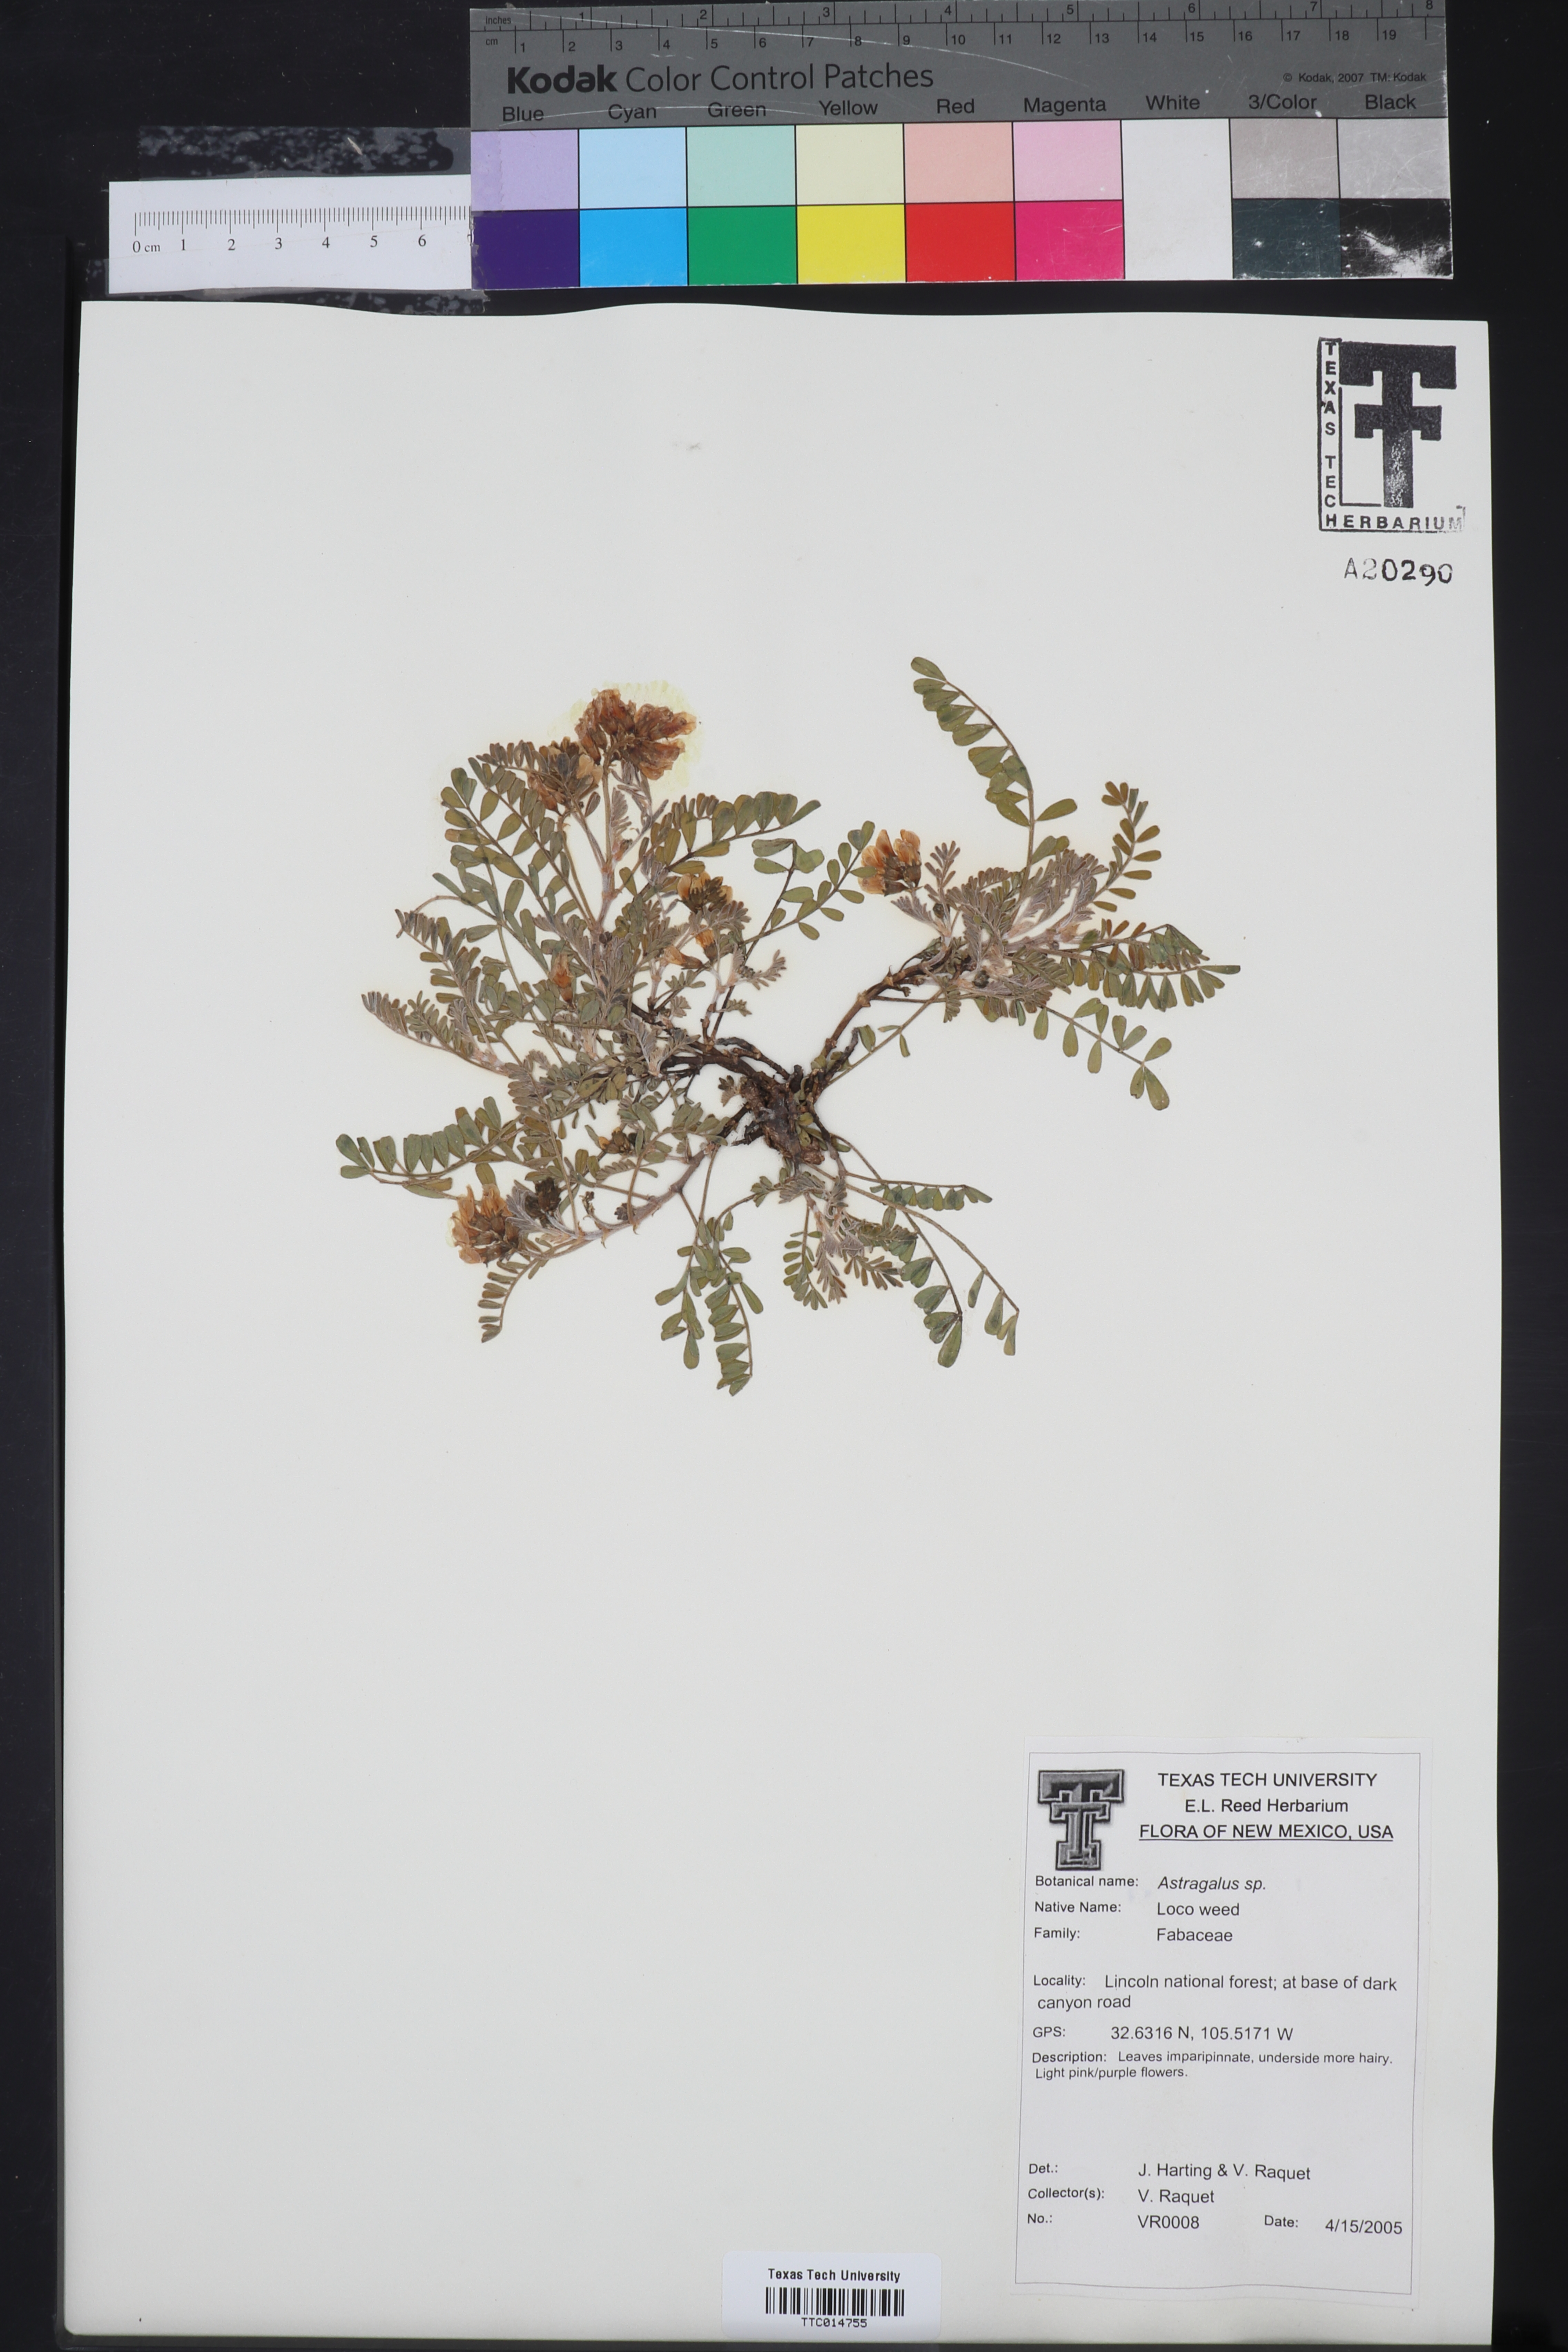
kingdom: Plantae
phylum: Tracheophyta
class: Magnoliopsida
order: Fabales
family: Fabaceae
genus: Astragalus
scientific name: Astragalus
